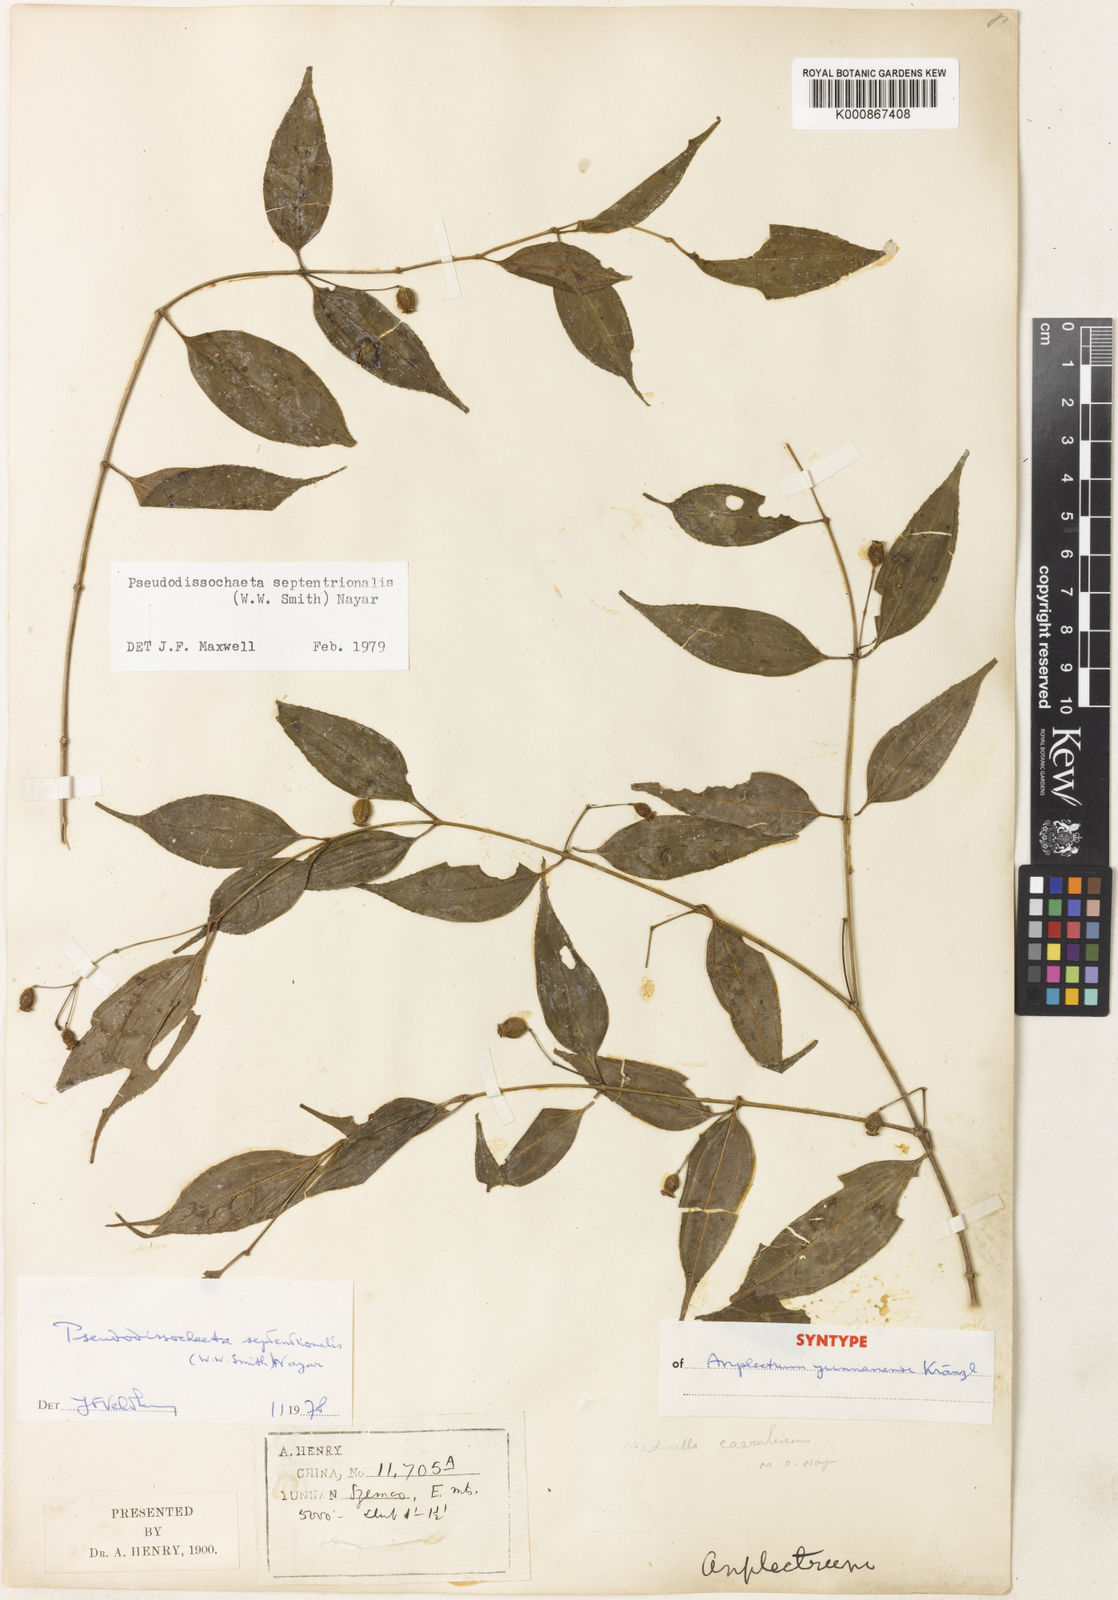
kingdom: Plantae
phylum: Tracheophyta
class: Magnoliopsida
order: Myrtales
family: Melastomataceae
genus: Pseudodissochaeta
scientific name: Pseudodissochaeta septentrionalis
